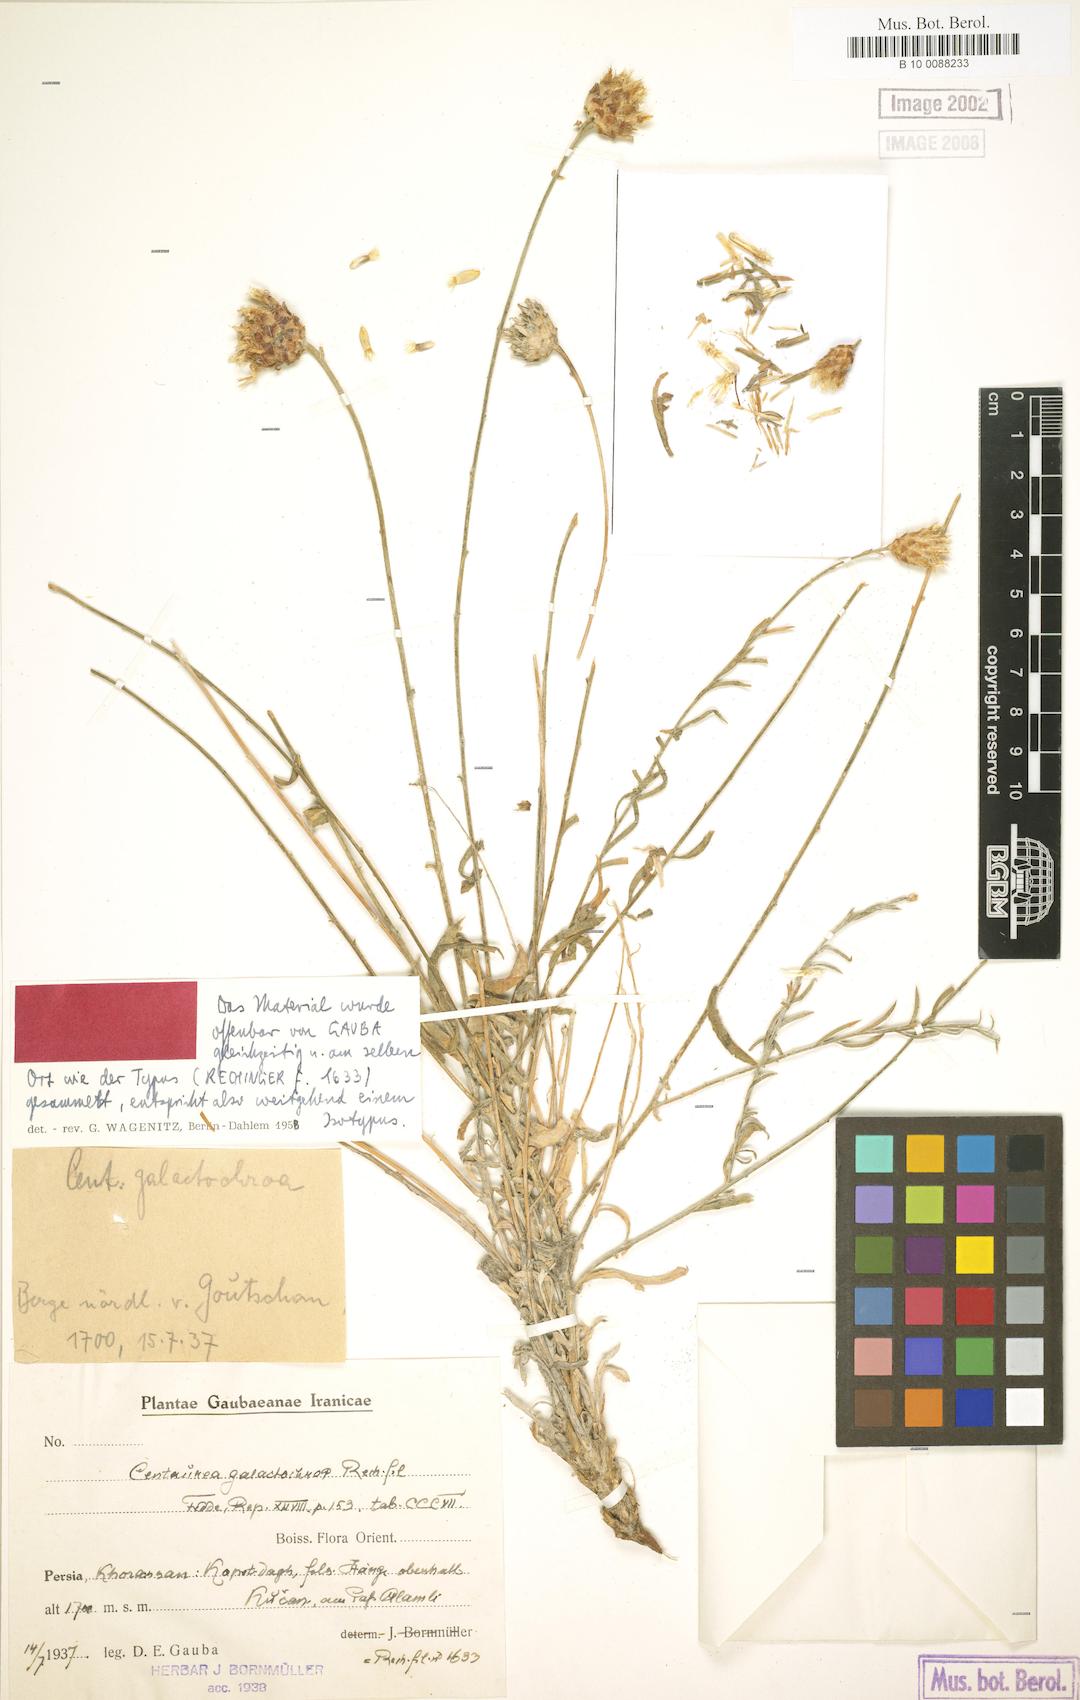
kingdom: Plantae
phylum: Tracheophyta
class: Magnoliopsida
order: Asterales
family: Asteraceae
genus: Psephellus
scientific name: Psephellus galactochroa
